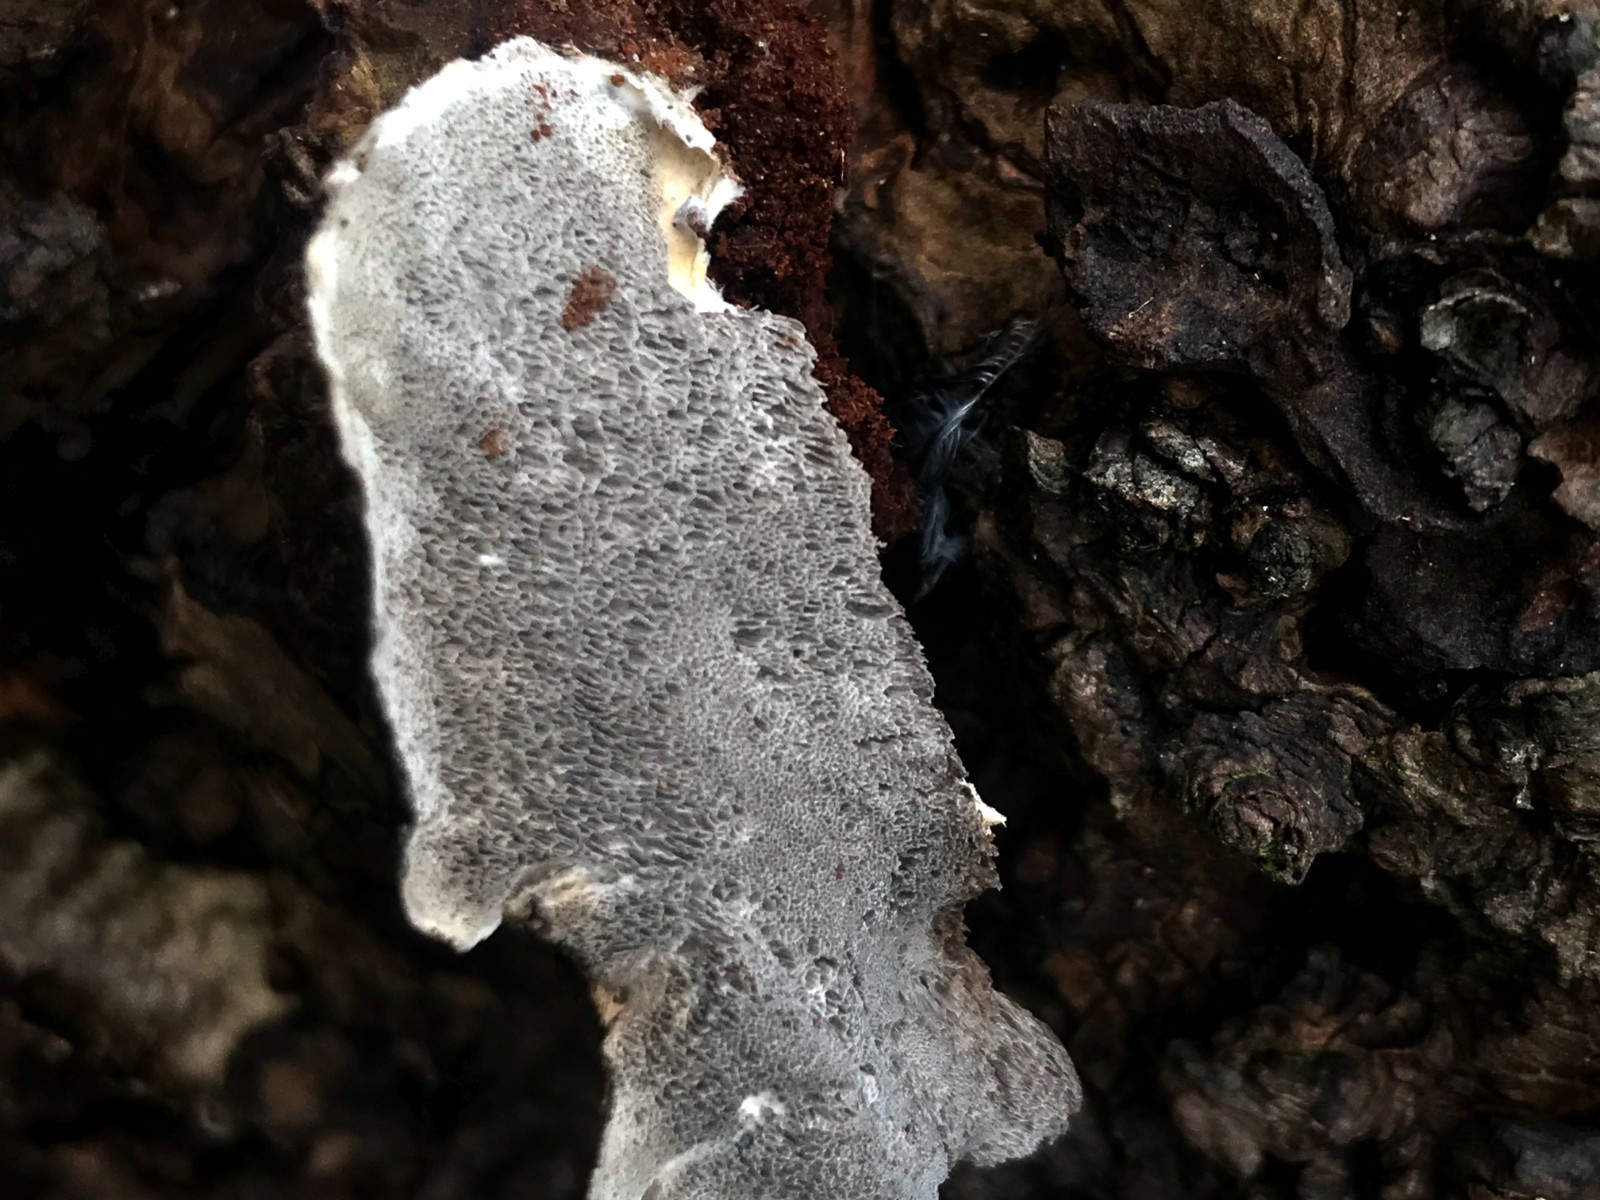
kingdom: Fungi
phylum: Basidiomycota
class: Agaricomycetes
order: Polyporales
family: Phanerochaetaceae
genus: Bjerkandera
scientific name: Bjerkandera adusta
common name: sveden sodporesvamp
